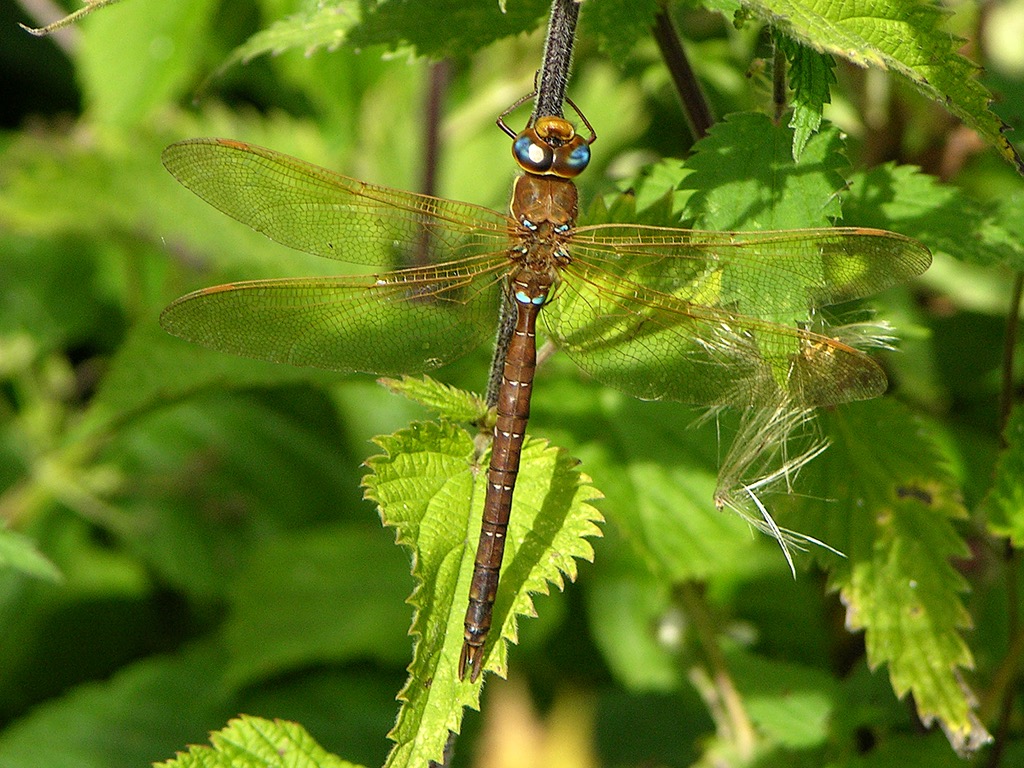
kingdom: Animalia
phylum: Arthropoda
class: Insecta
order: Odonata
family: Aeshnidae
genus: Aeshna
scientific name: Aeshna grandis
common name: Brun mosaikguldsmed
